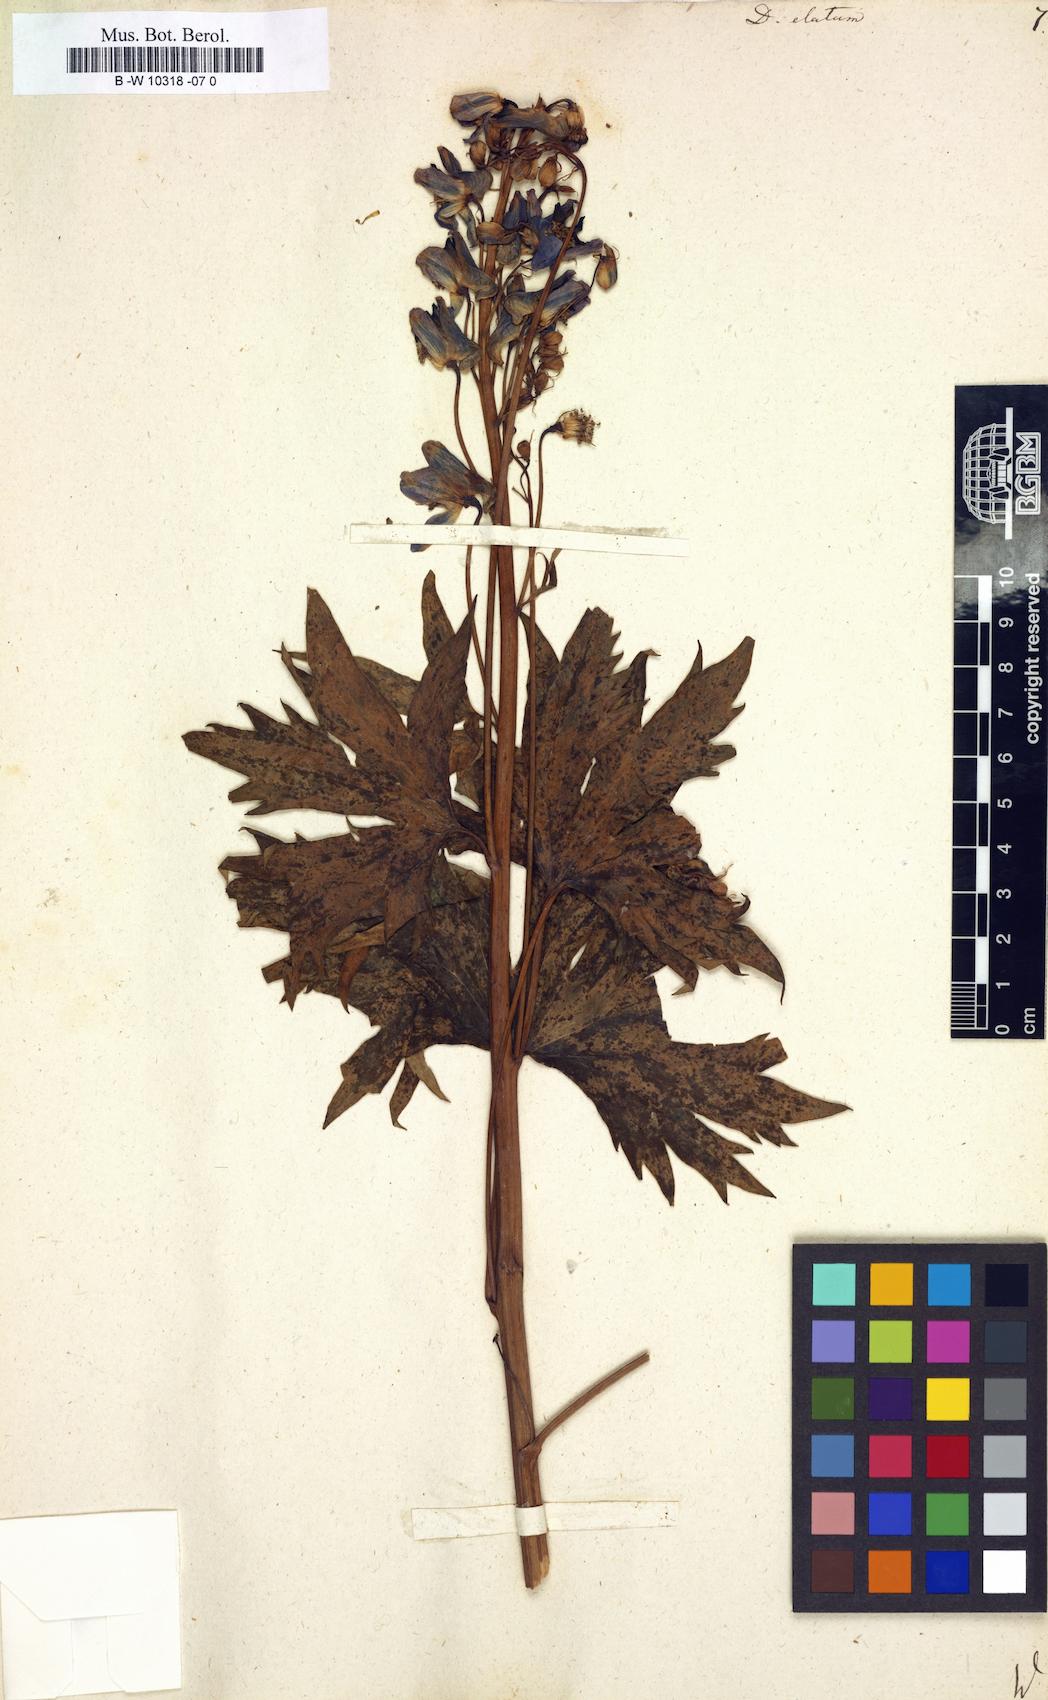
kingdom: Plantae
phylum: Tracheophyta
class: Magnoliopsida
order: Ranunculales
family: Ranunculaceae
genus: Delphinium
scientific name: Delphinium elatum
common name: Candle larkspur
